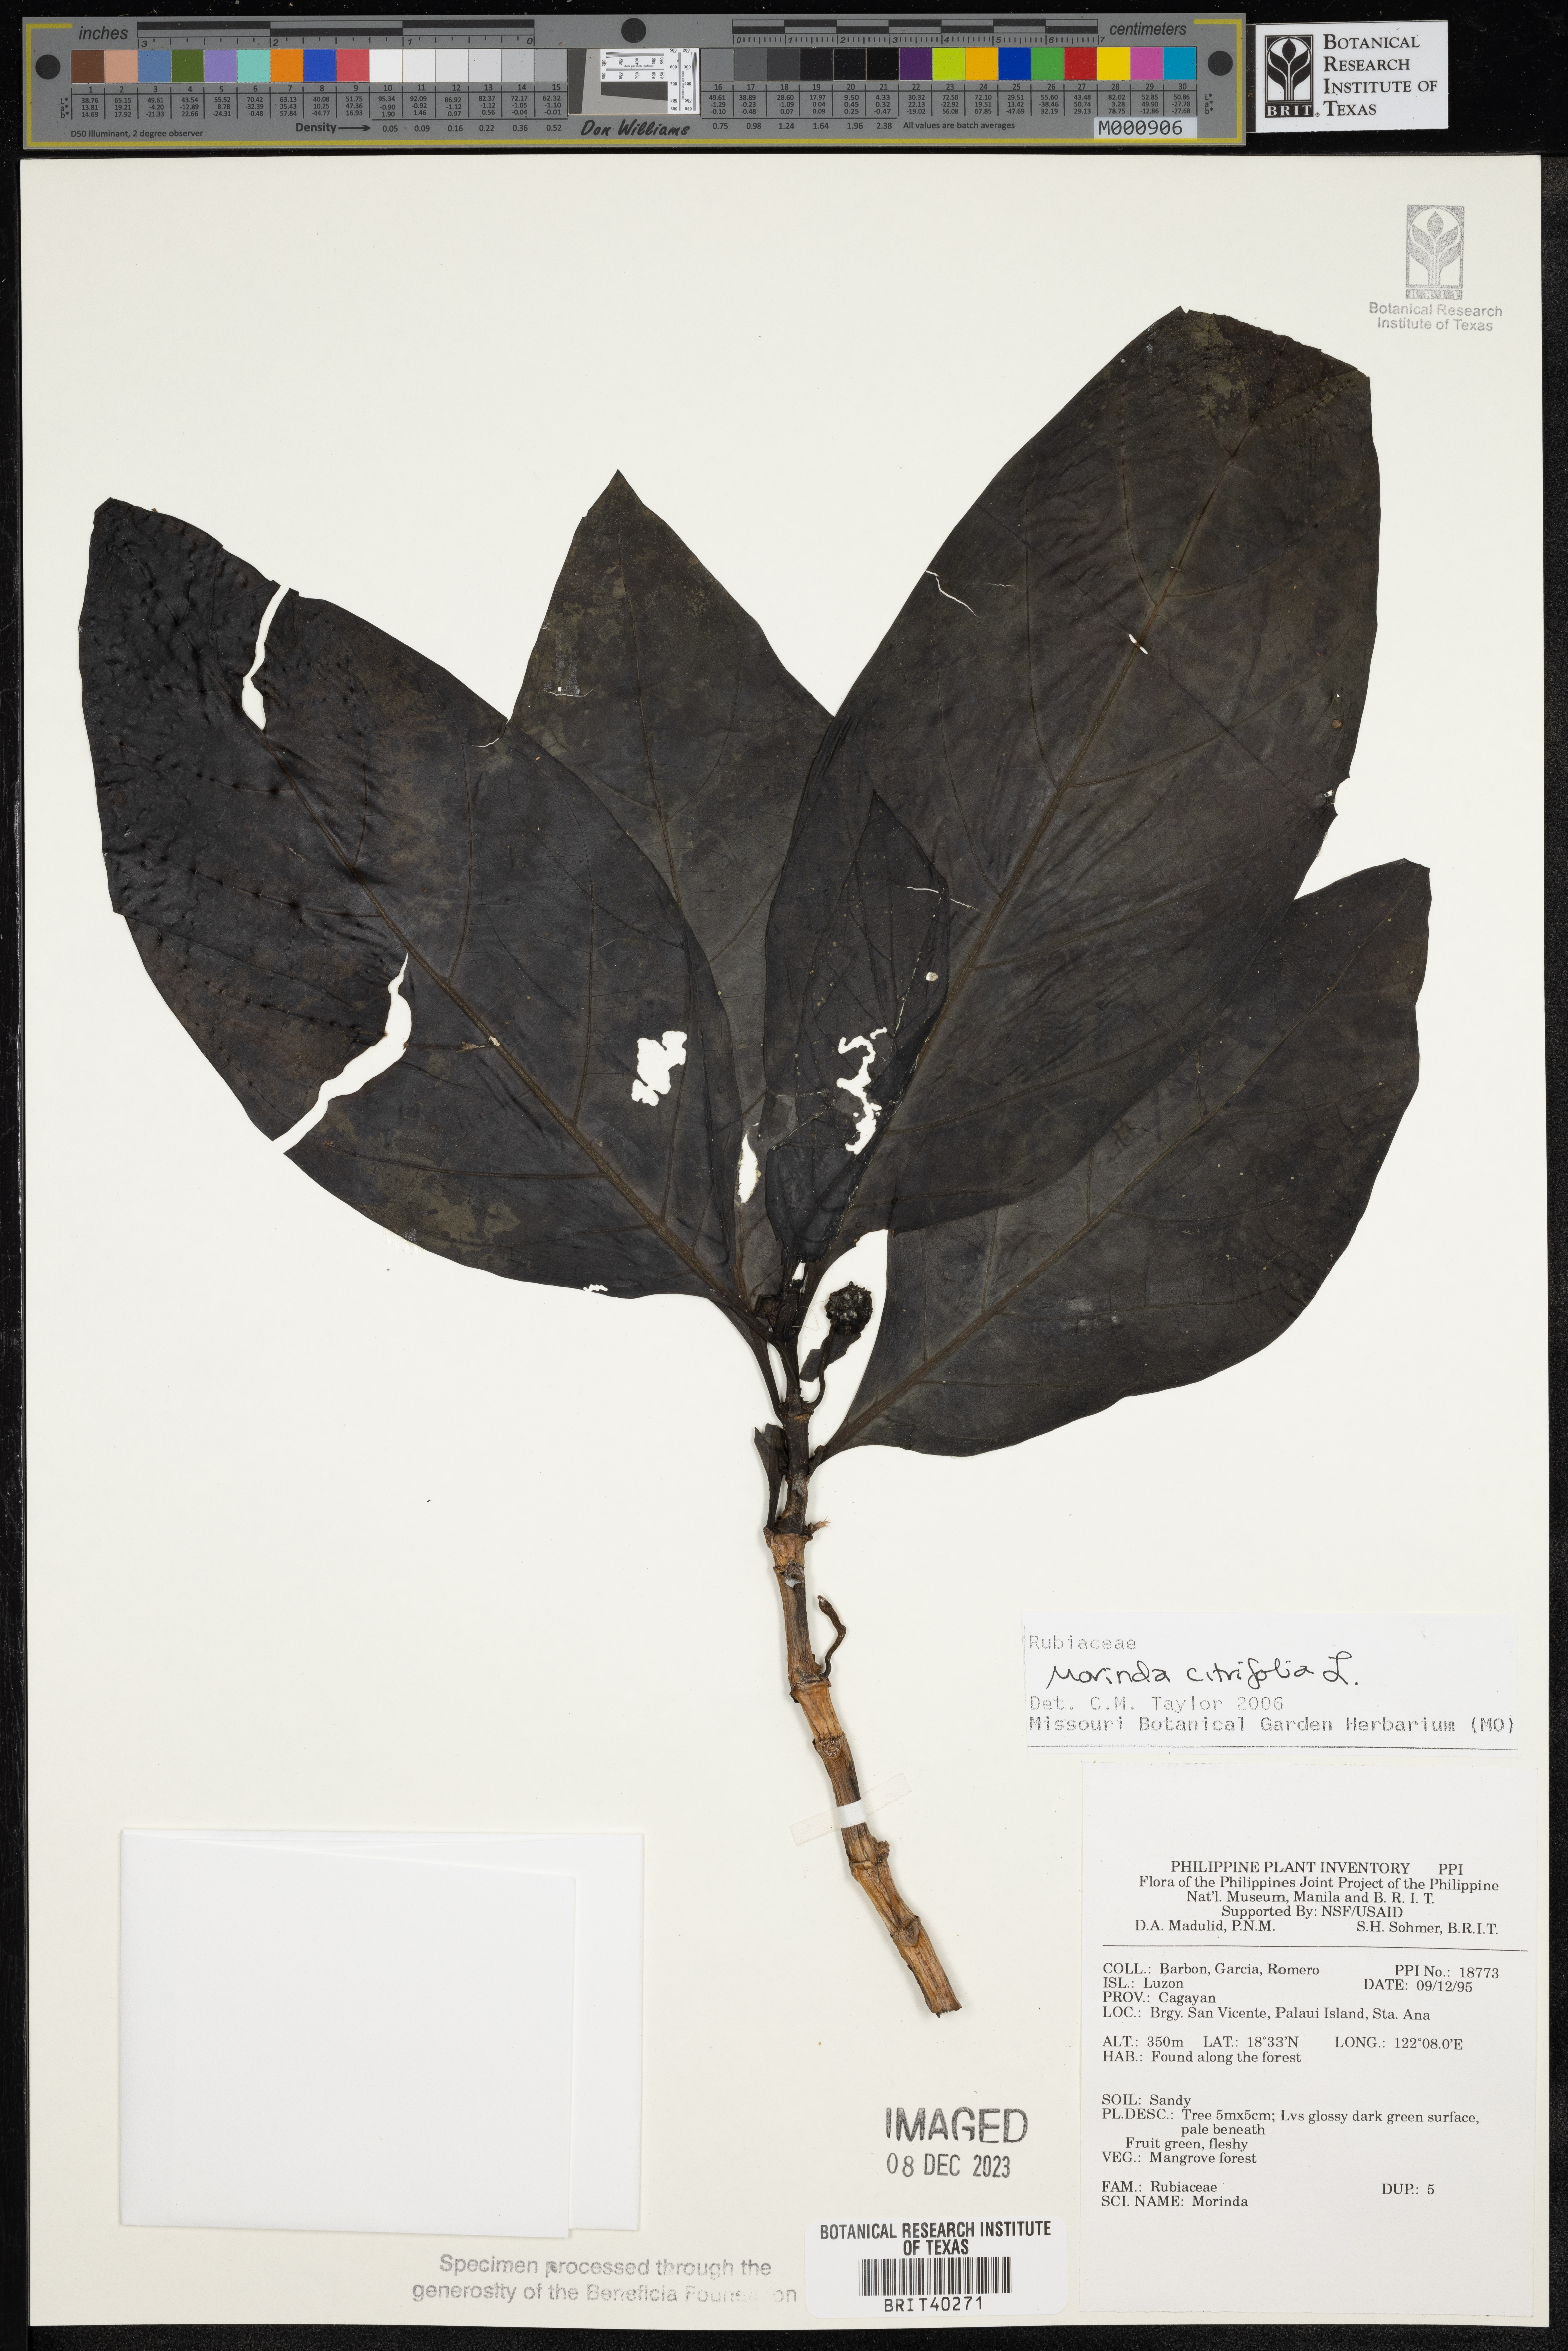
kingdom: Plantae
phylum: Tracheophyta
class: Magnoliopsida
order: Gentianales
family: Rubiaceae
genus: Morinda
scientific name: Morinda citrifolia
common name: Indian-mulberry
